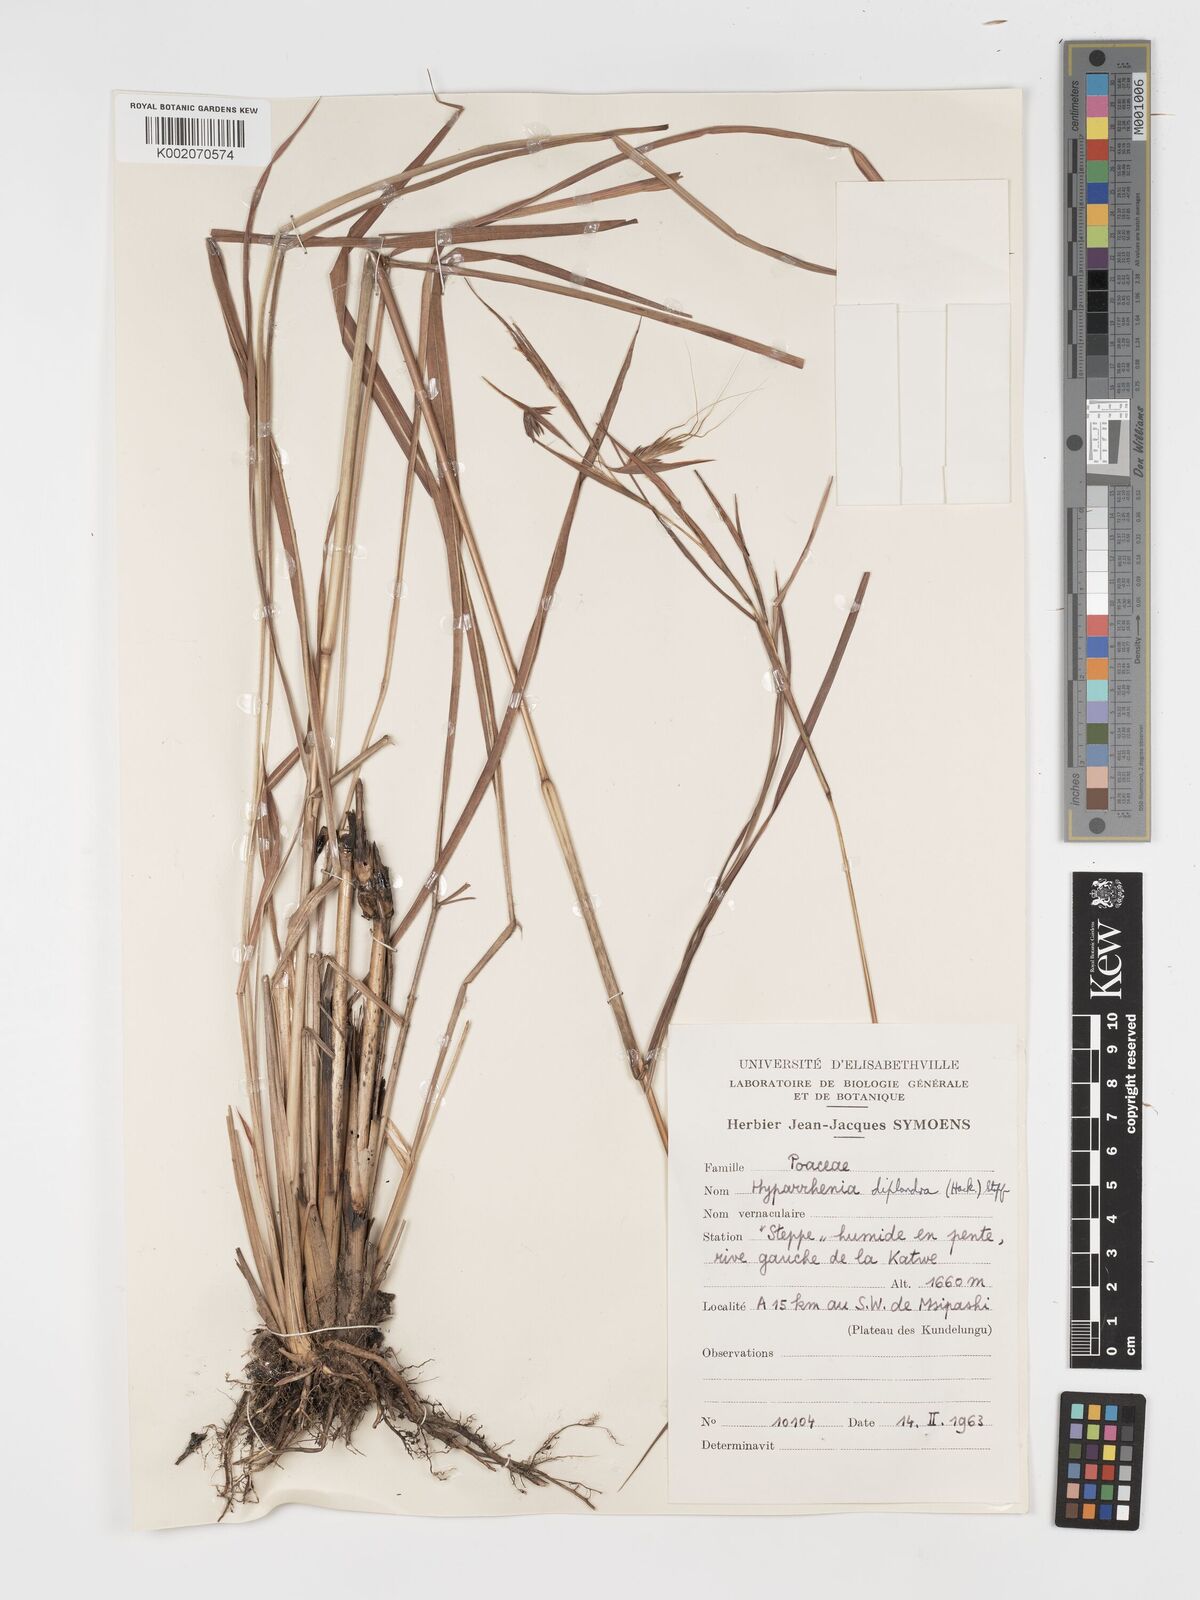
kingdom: Plantae
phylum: Tracheophyta
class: Liliopsida
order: Poales
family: Poaceae
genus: Hyparrhenia
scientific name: Hyparrhenia diplandra
